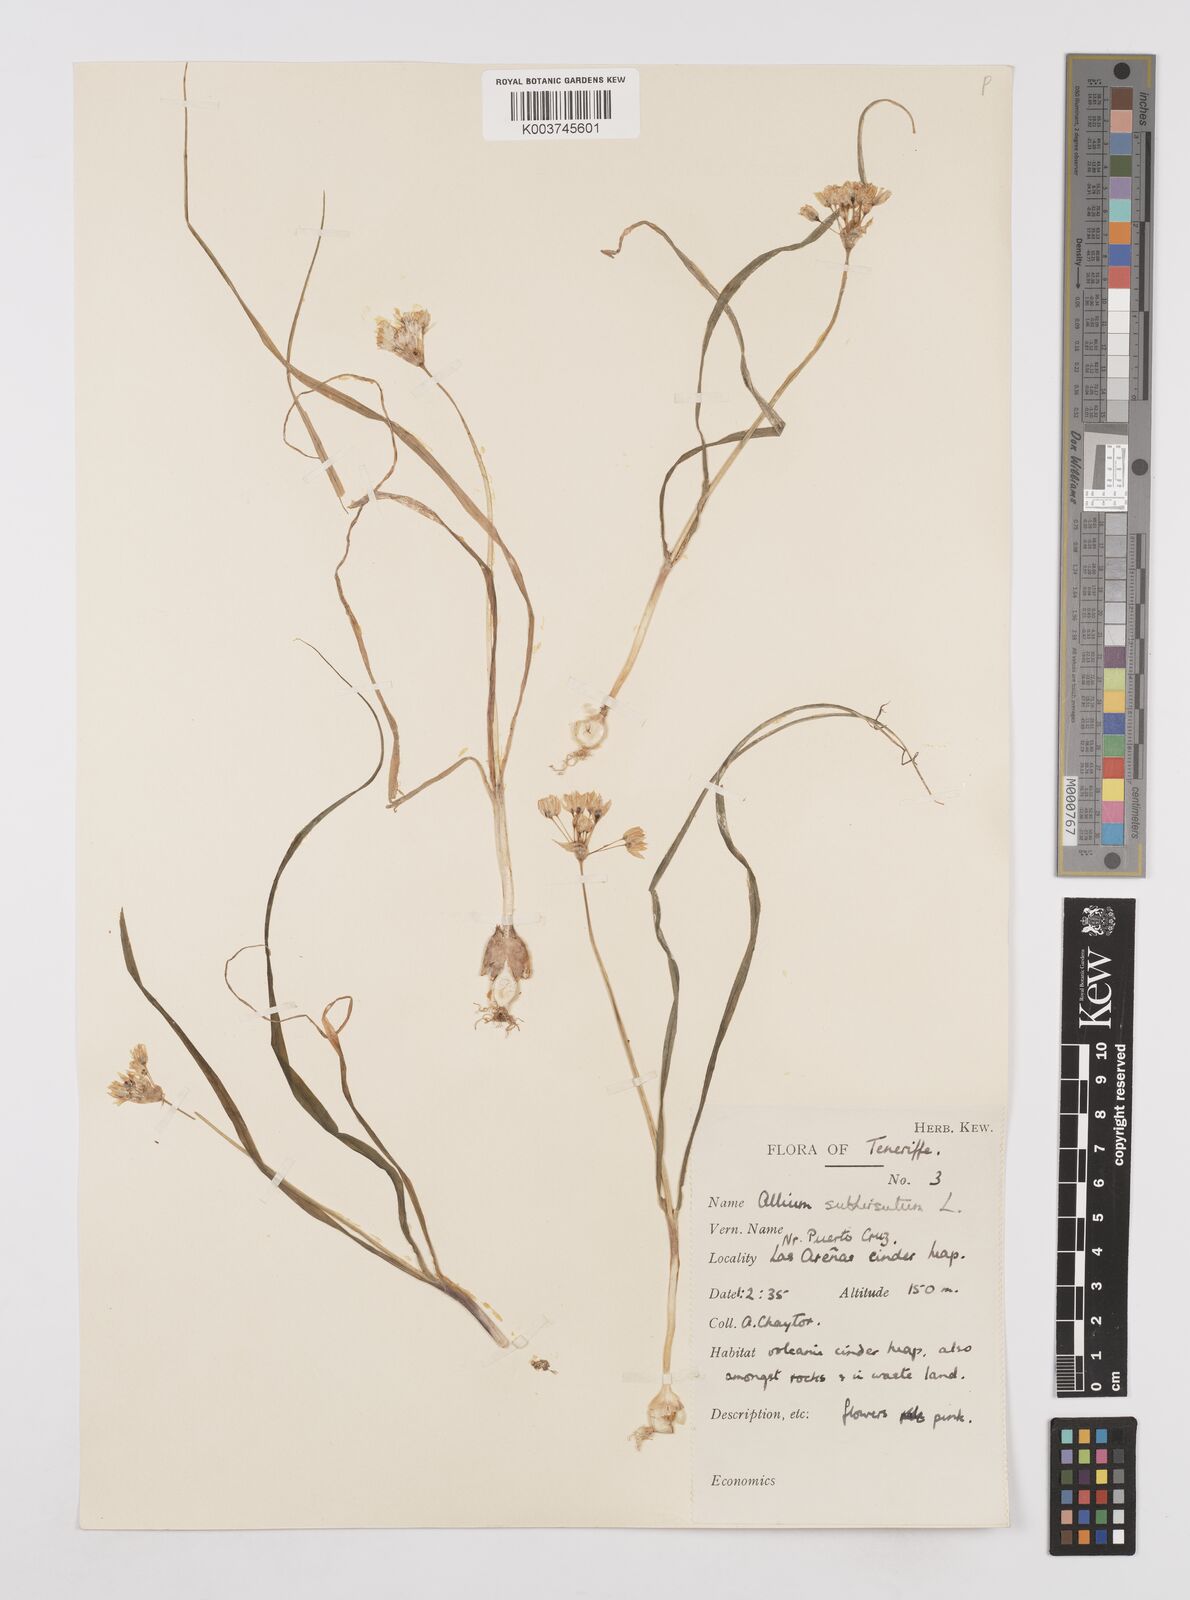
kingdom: Plantae
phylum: Tracheophyta
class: Liliopsida
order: Asparagales
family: Amaryllidaceae
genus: Allium
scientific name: Allium subvillosum
